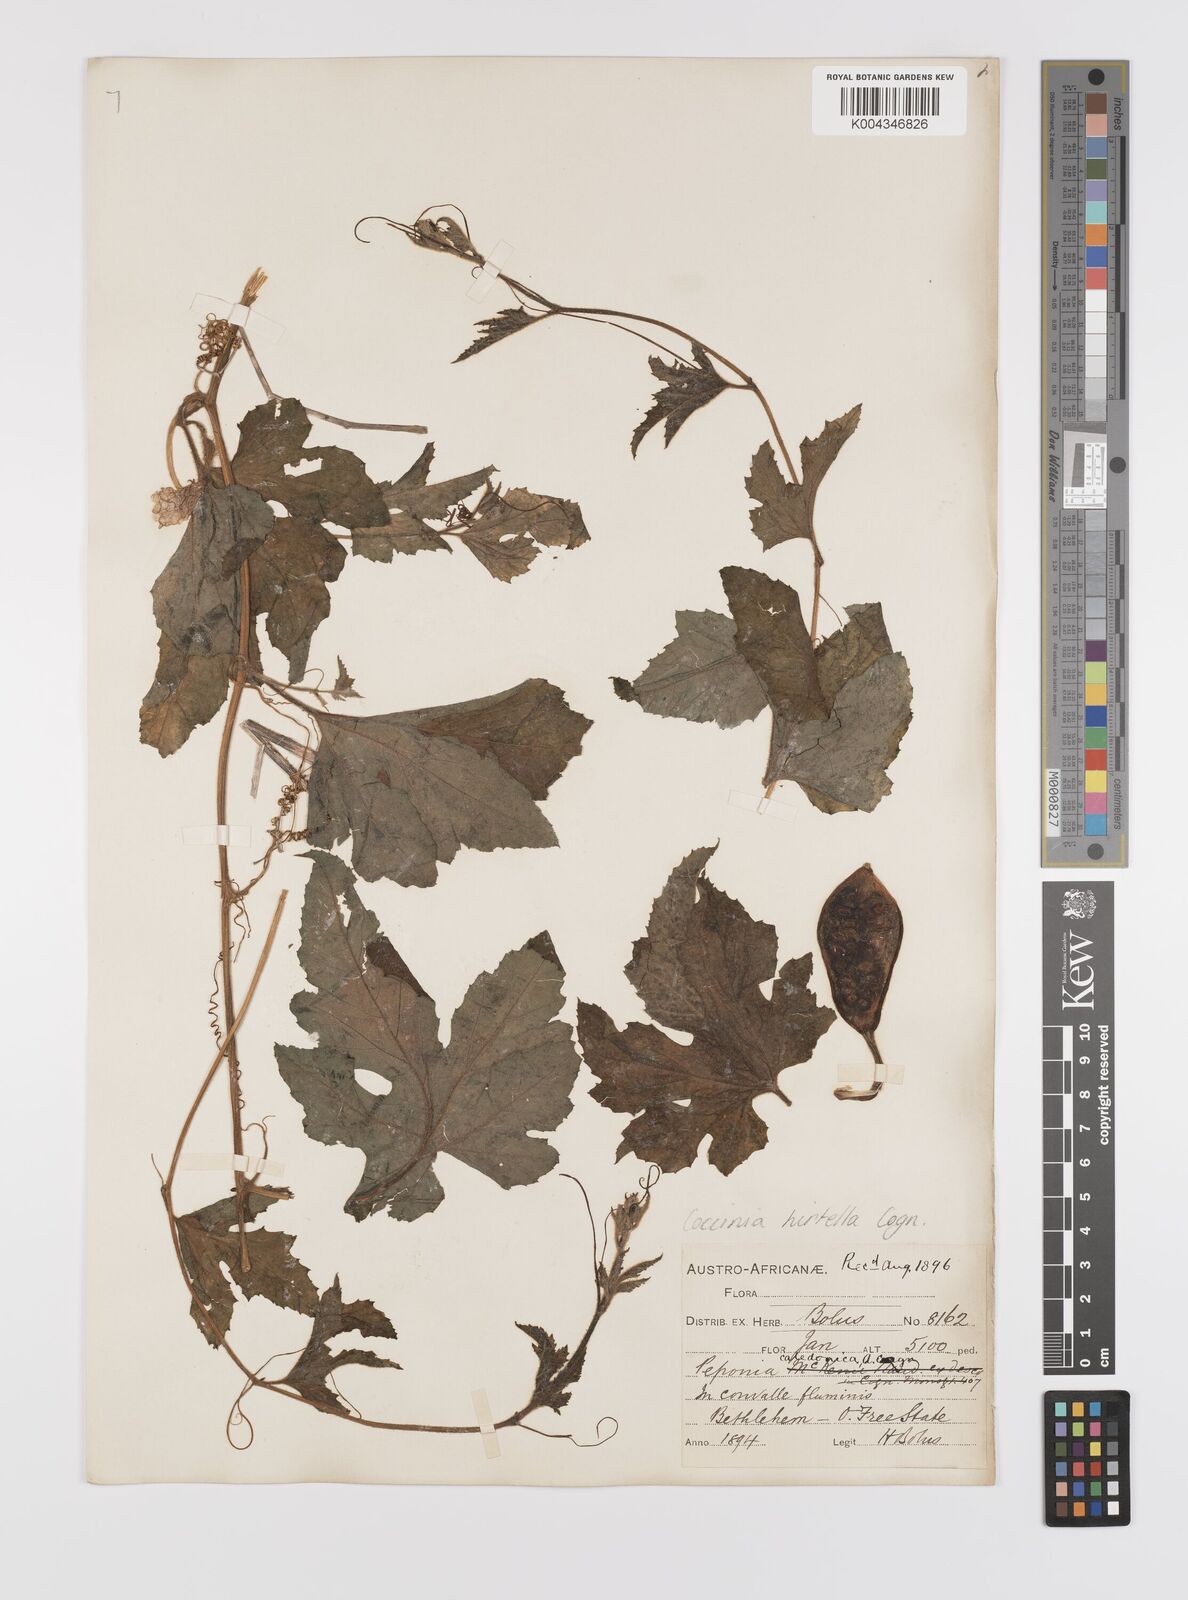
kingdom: Plantae
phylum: Tracheophyta
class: Magnoliopsida
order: Cucurbitales
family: Cucurbitaceae
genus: Coccinia
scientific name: Coccinia hirtella
